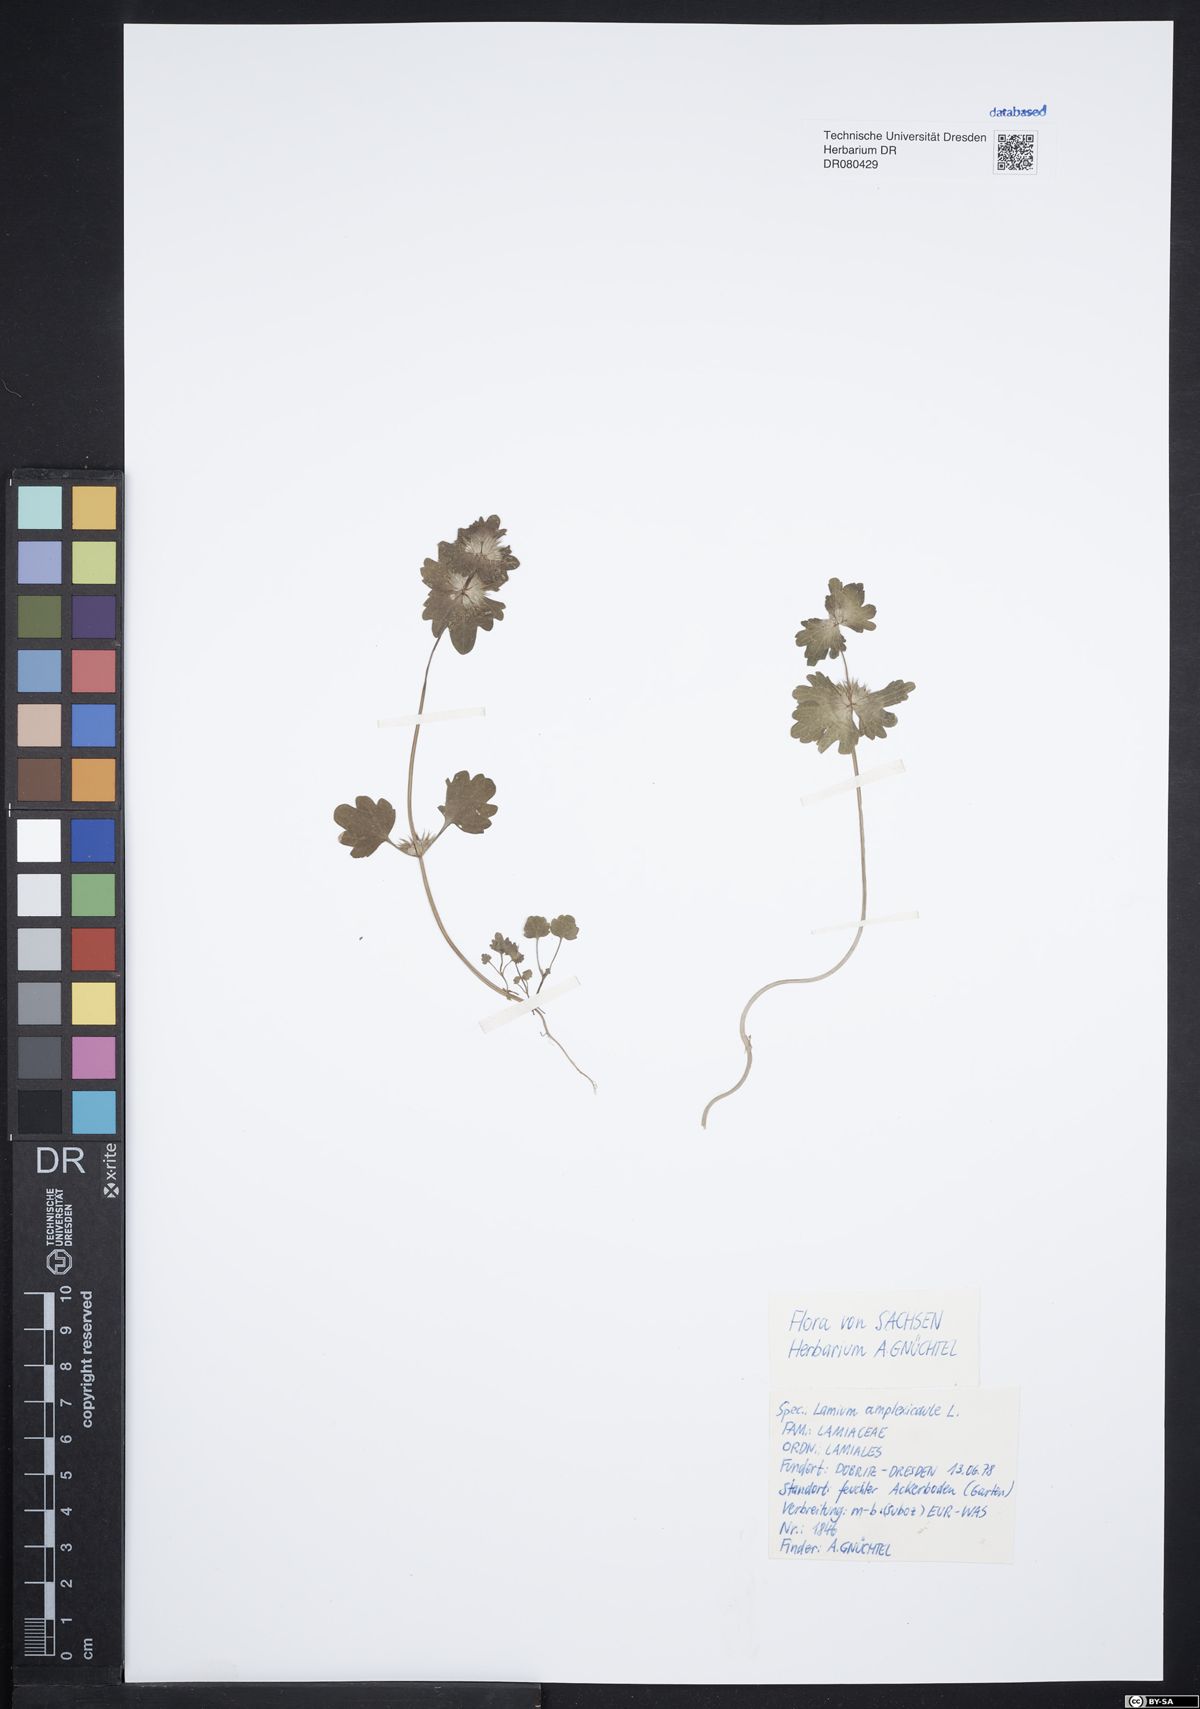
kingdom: Plantae
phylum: Tracheophyta
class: Magnoliopsida
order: Lamiales
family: Lamiaceae
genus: Lamium
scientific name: Lamium amplexicaule
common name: Henbit dead-nettle
